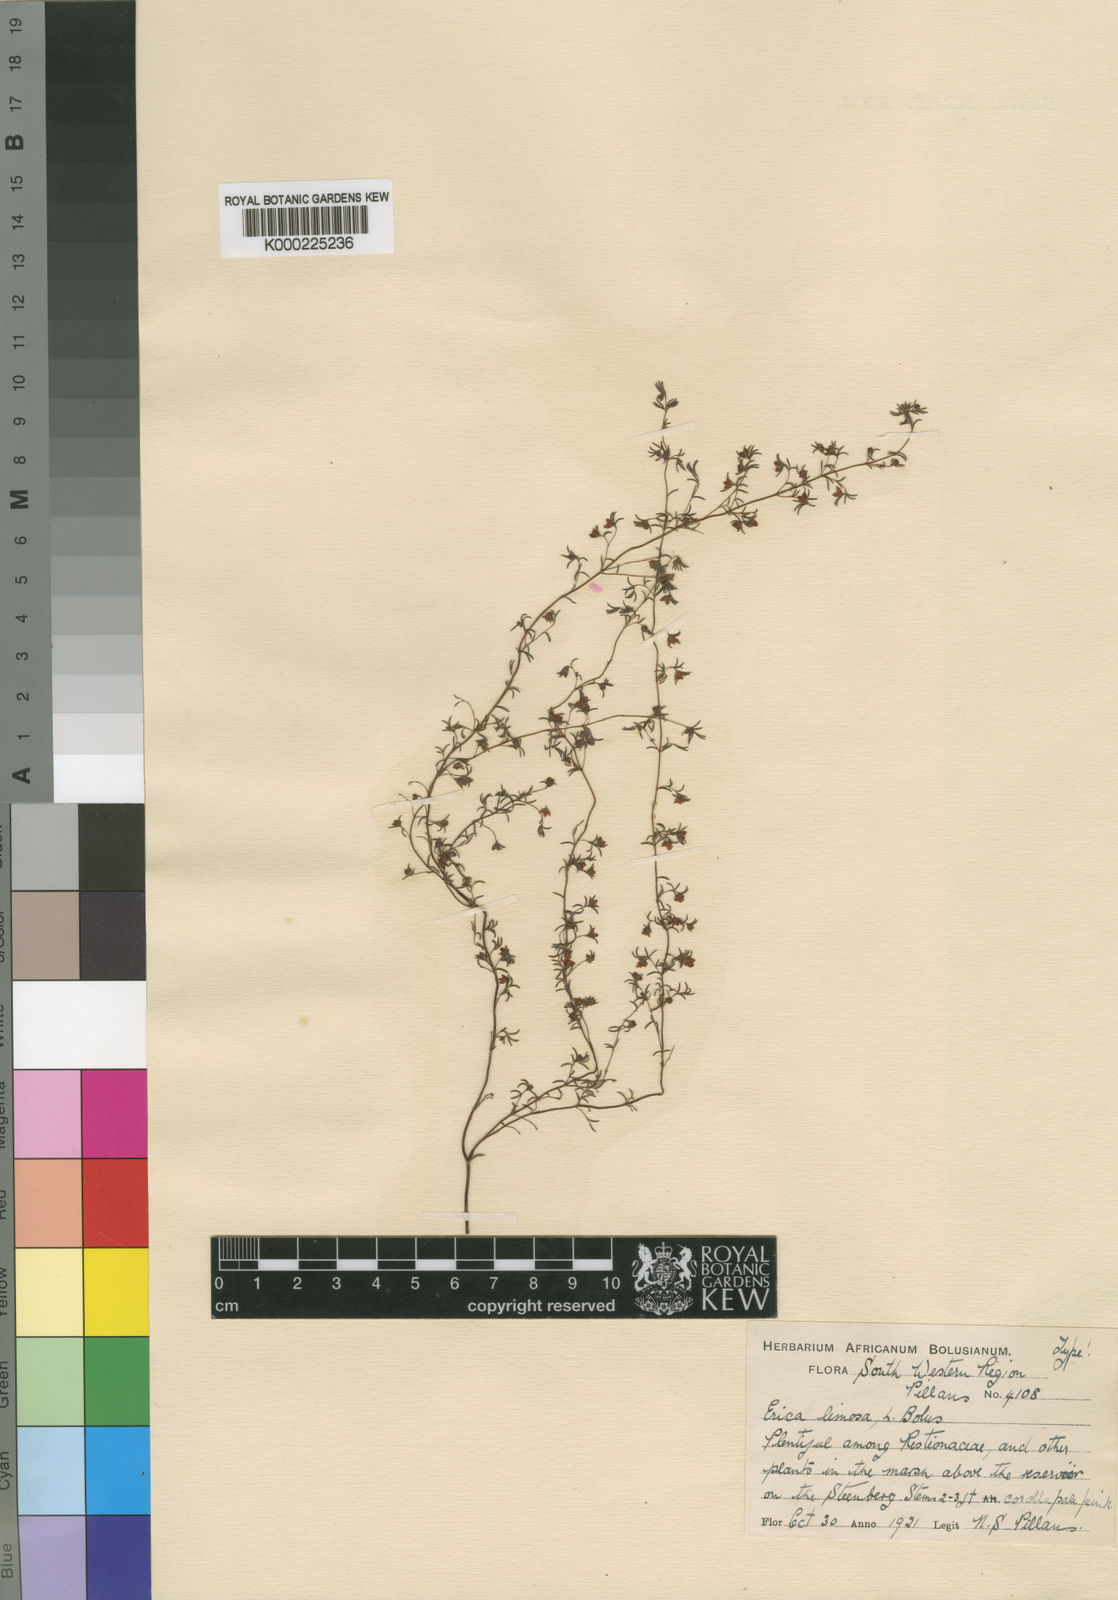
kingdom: Plantae
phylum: Tracheophyta
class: Magnoliopsida
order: Ericales
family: Ericaceae
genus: Erica
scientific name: Erica limosa
